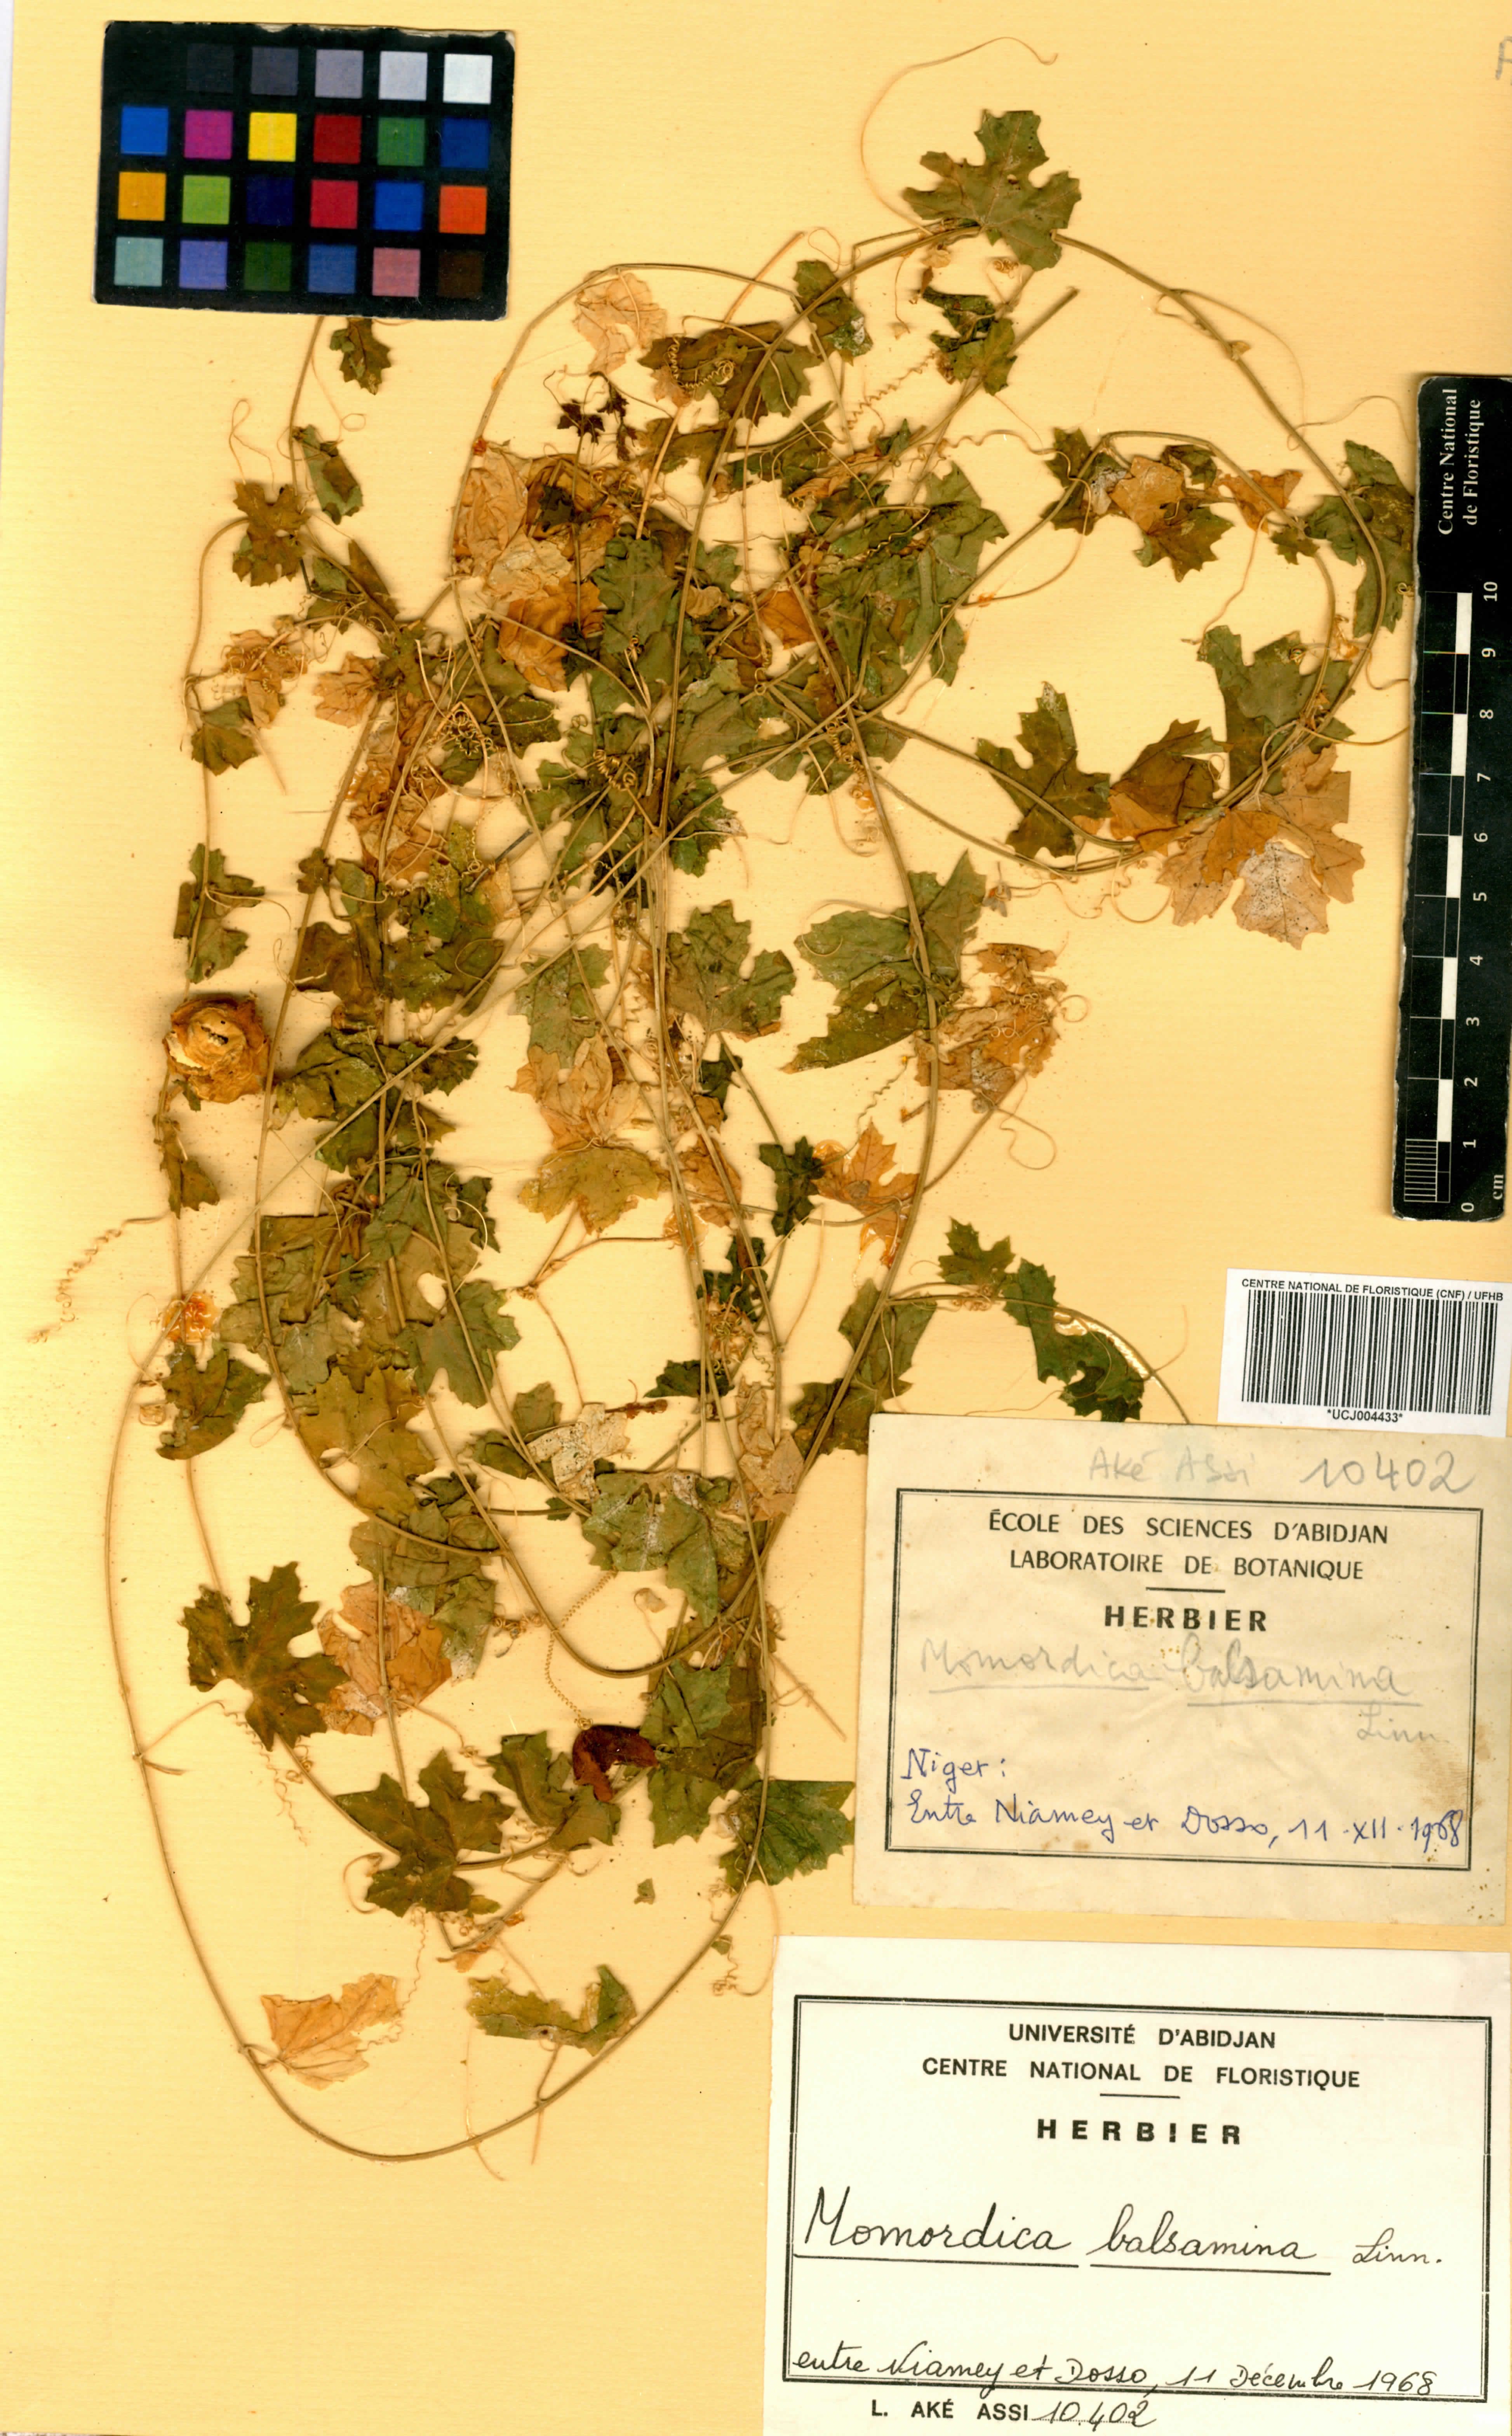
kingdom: Plantae
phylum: Tracheophyta
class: Magnoliopsida
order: Cucurbitales
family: Cucurbitaceae
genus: Momordica
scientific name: Momordica balsamina
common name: Southern balsampear
